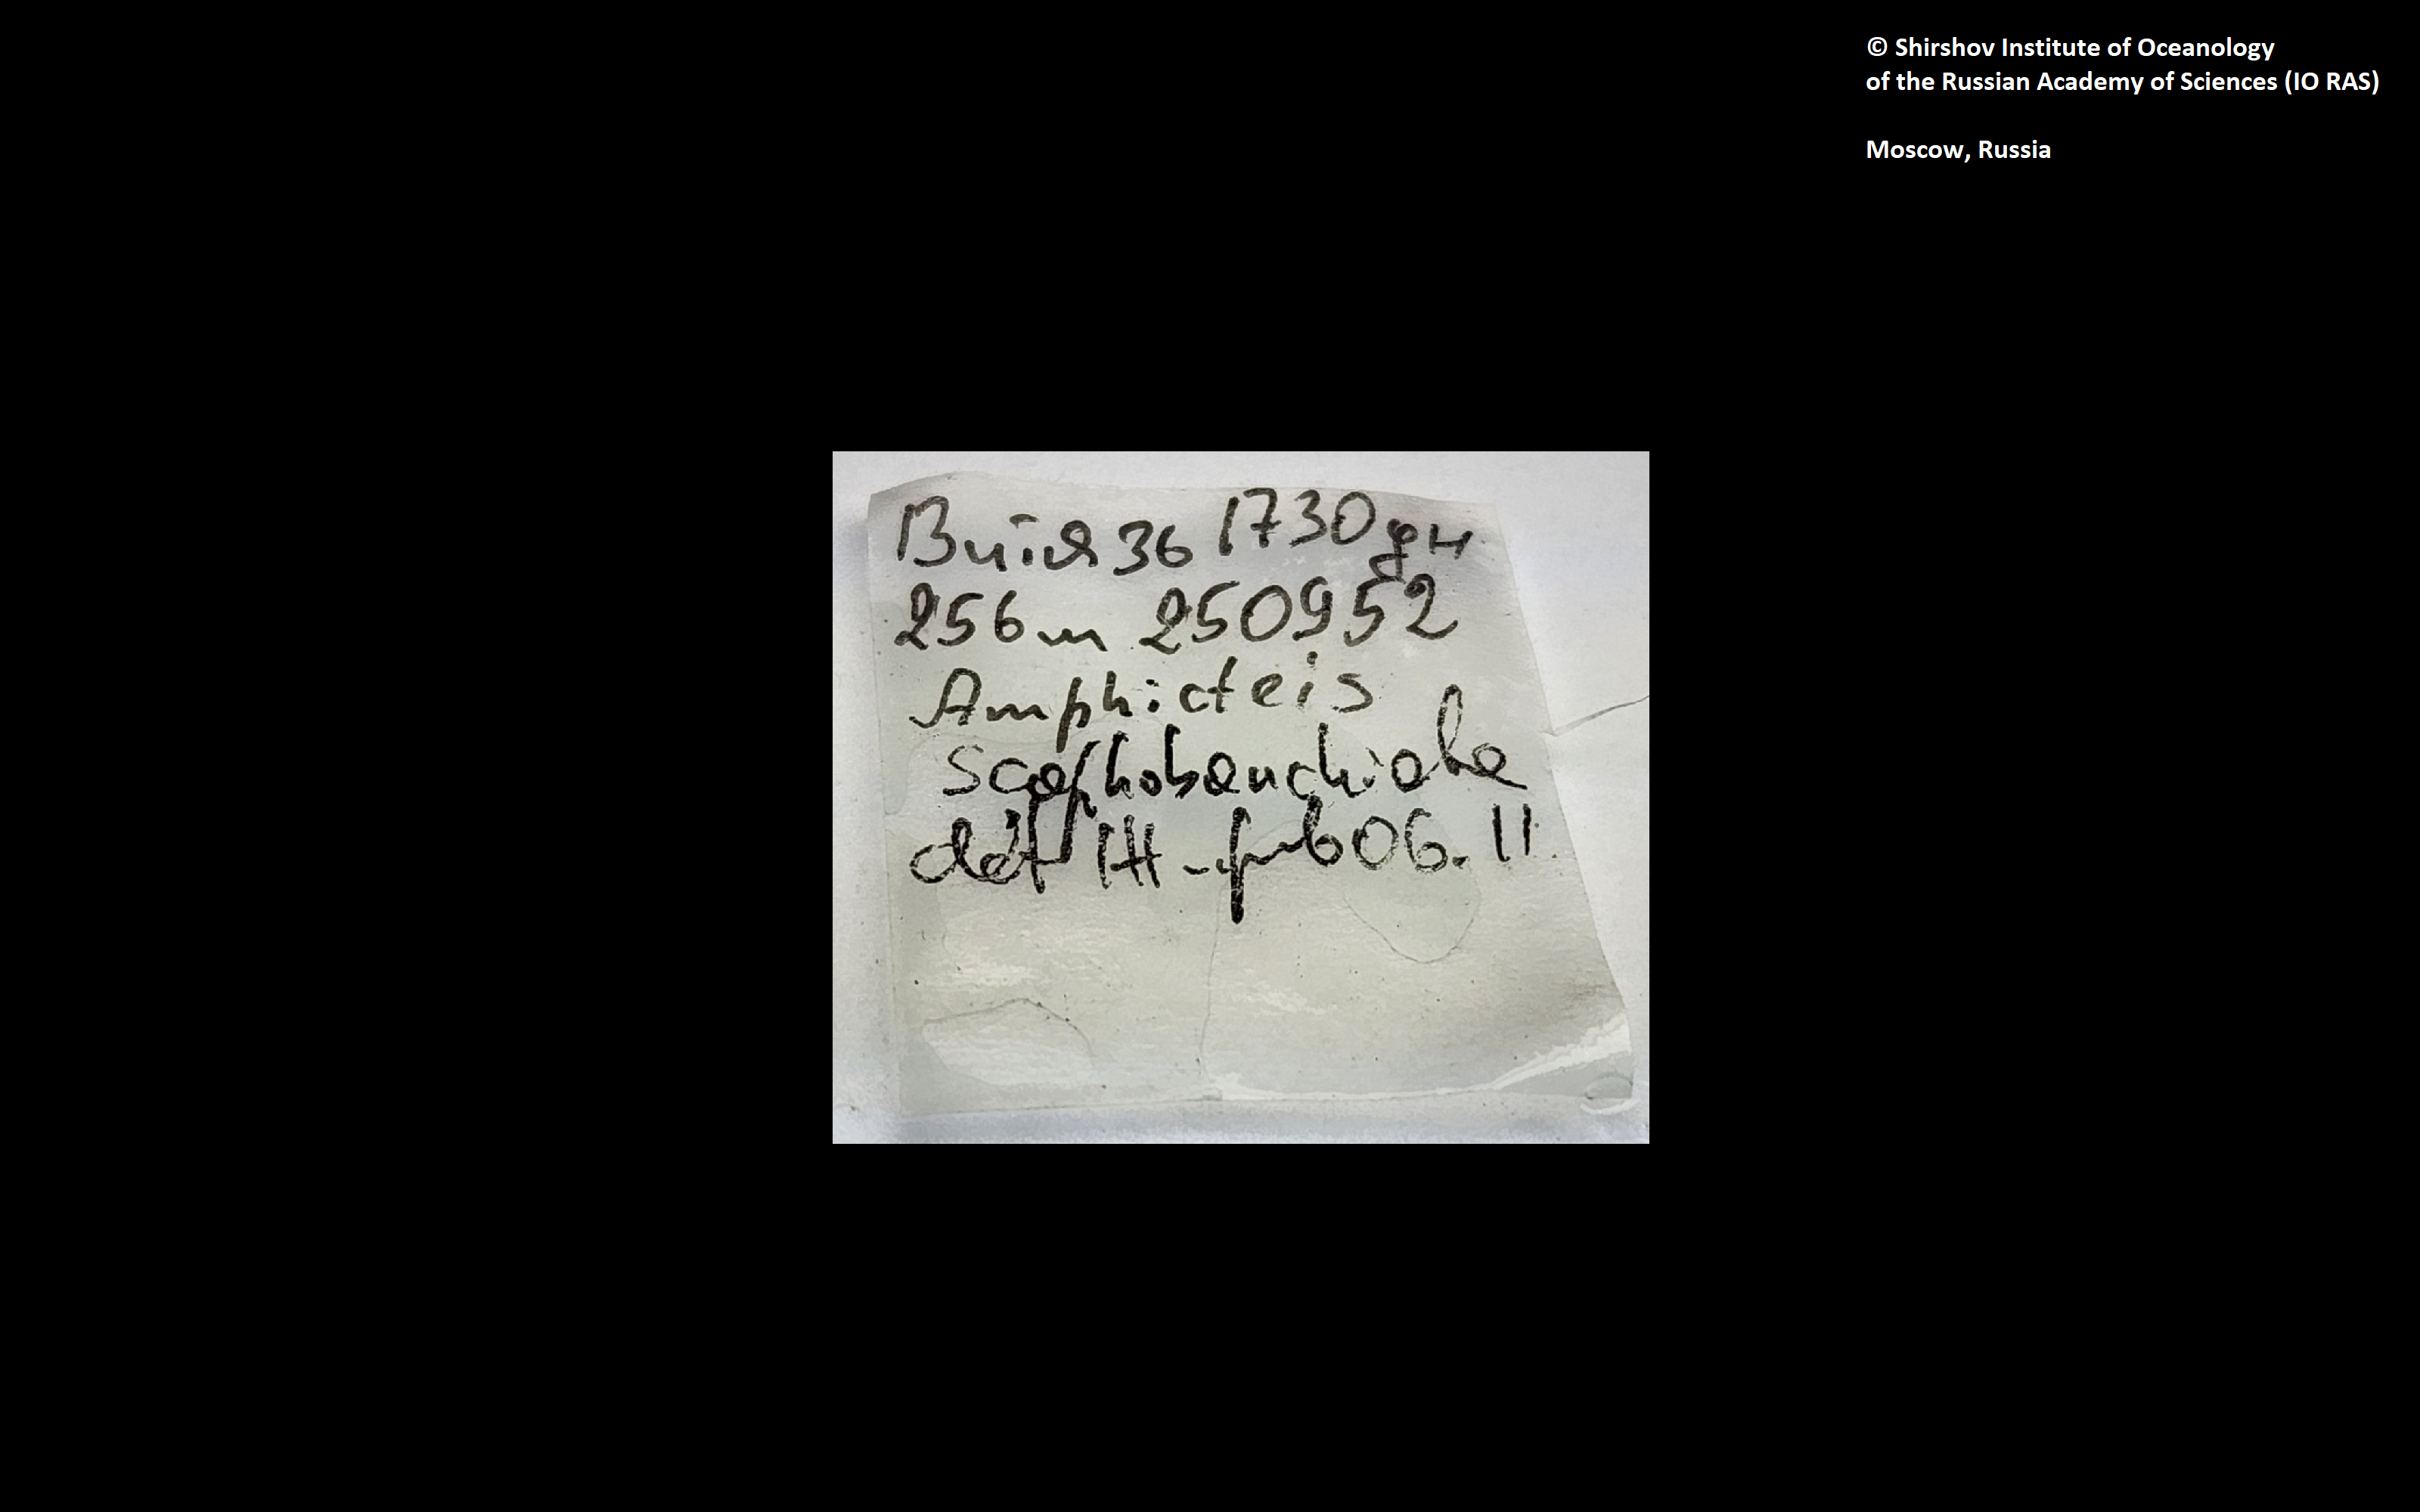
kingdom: Animalia
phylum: Annelida
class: Polychaeta
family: Ampharetidae
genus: Amphicteis
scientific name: Amphicteis nikiti
